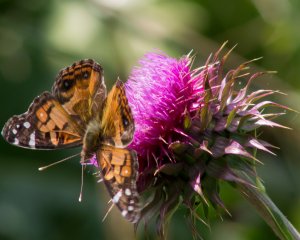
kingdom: Animalia
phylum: Arthropoda
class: Insecta
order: Lepidoptera
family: Nymphalidae
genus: Vanessa
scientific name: Vanessa virginiensis
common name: American Lady
